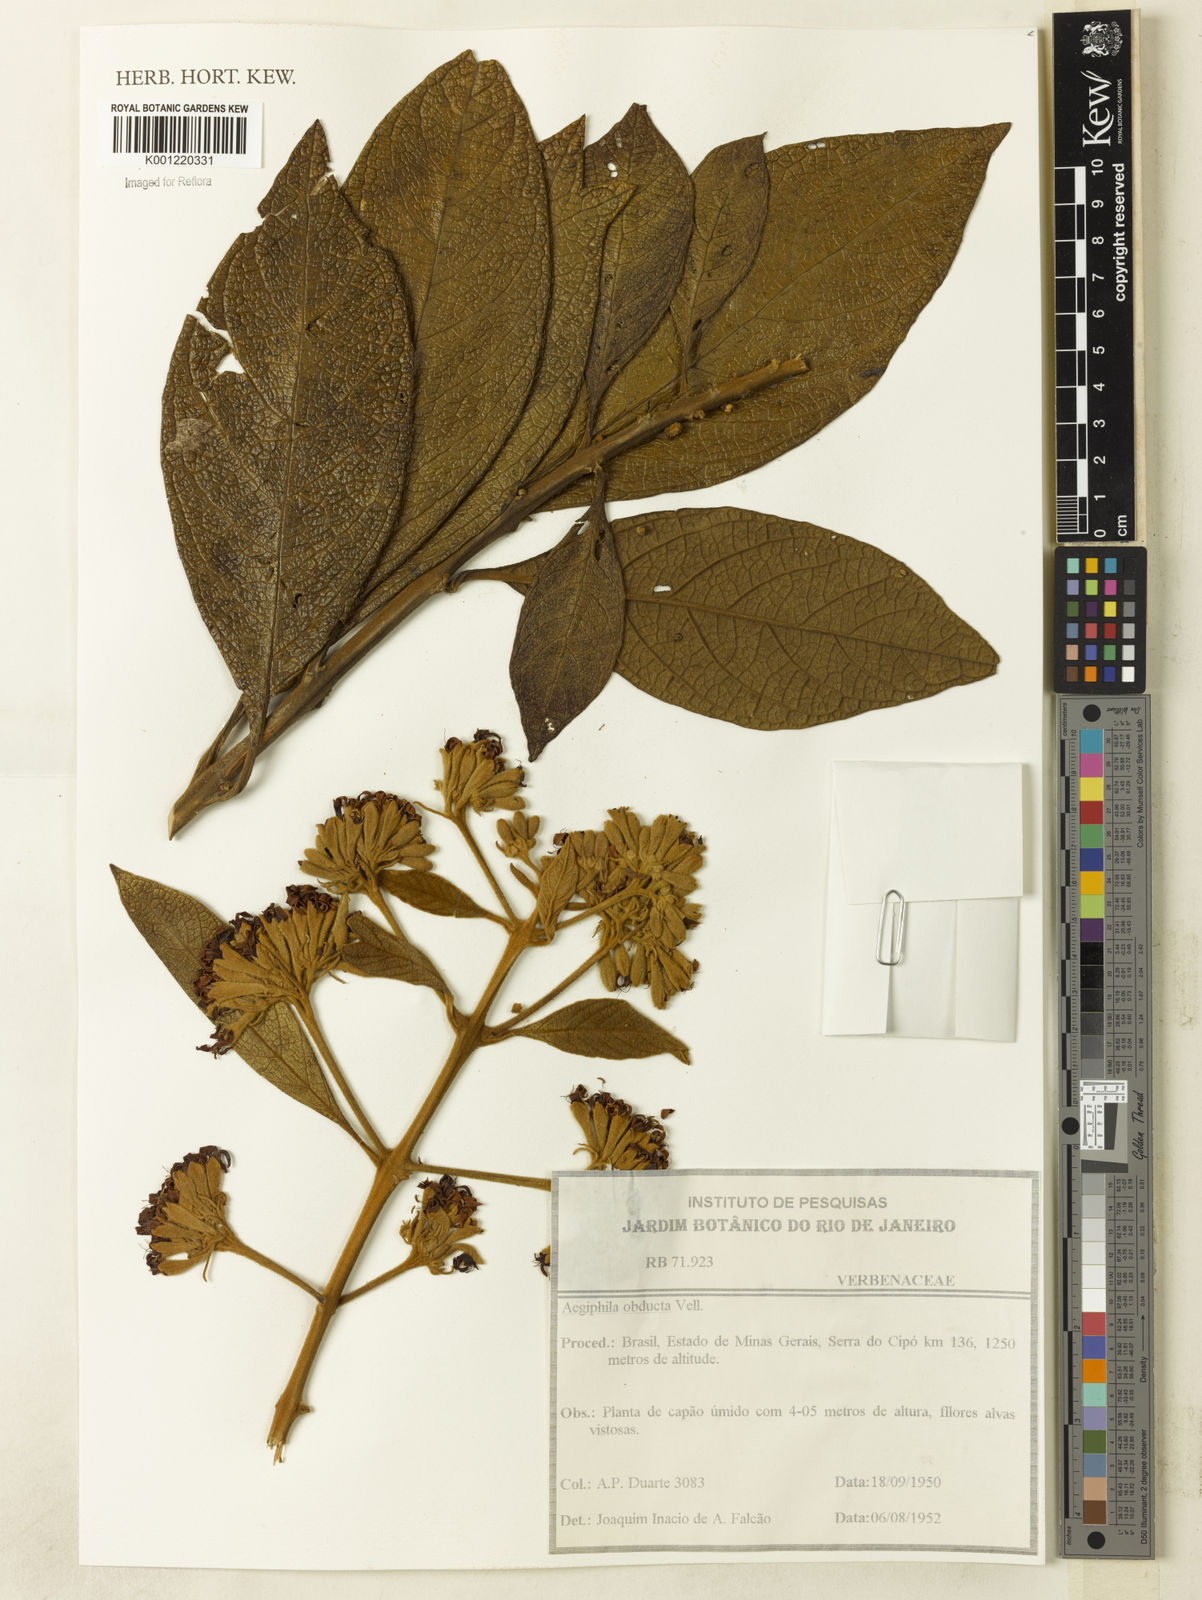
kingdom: Plantae
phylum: Tracheophyta
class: Magnoliopsida
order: Lamiales
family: Lamiaceae
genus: Aegiphila
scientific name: Aegiphila obducta
